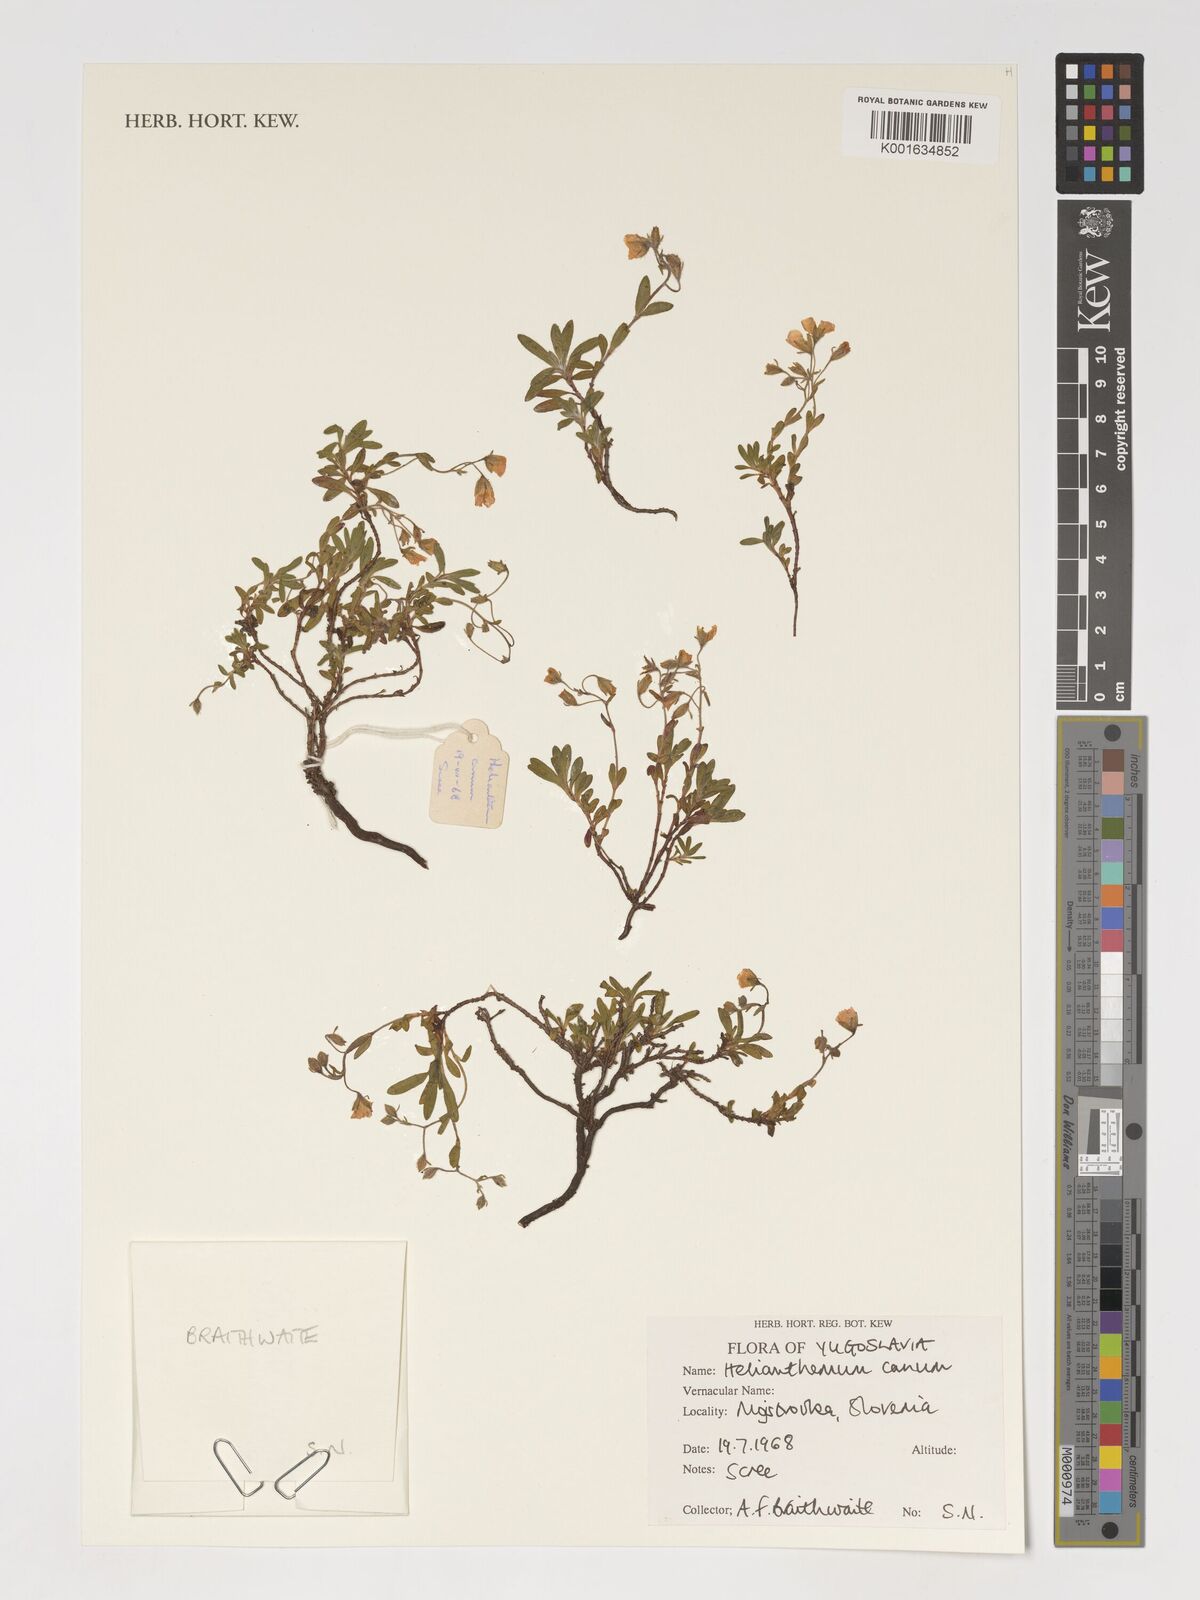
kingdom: Plantae
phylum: Tracheophyta
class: Magnoliopsida
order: Malvales
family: Cistaceae
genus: Helianthemum
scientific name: Helianthemum canum
